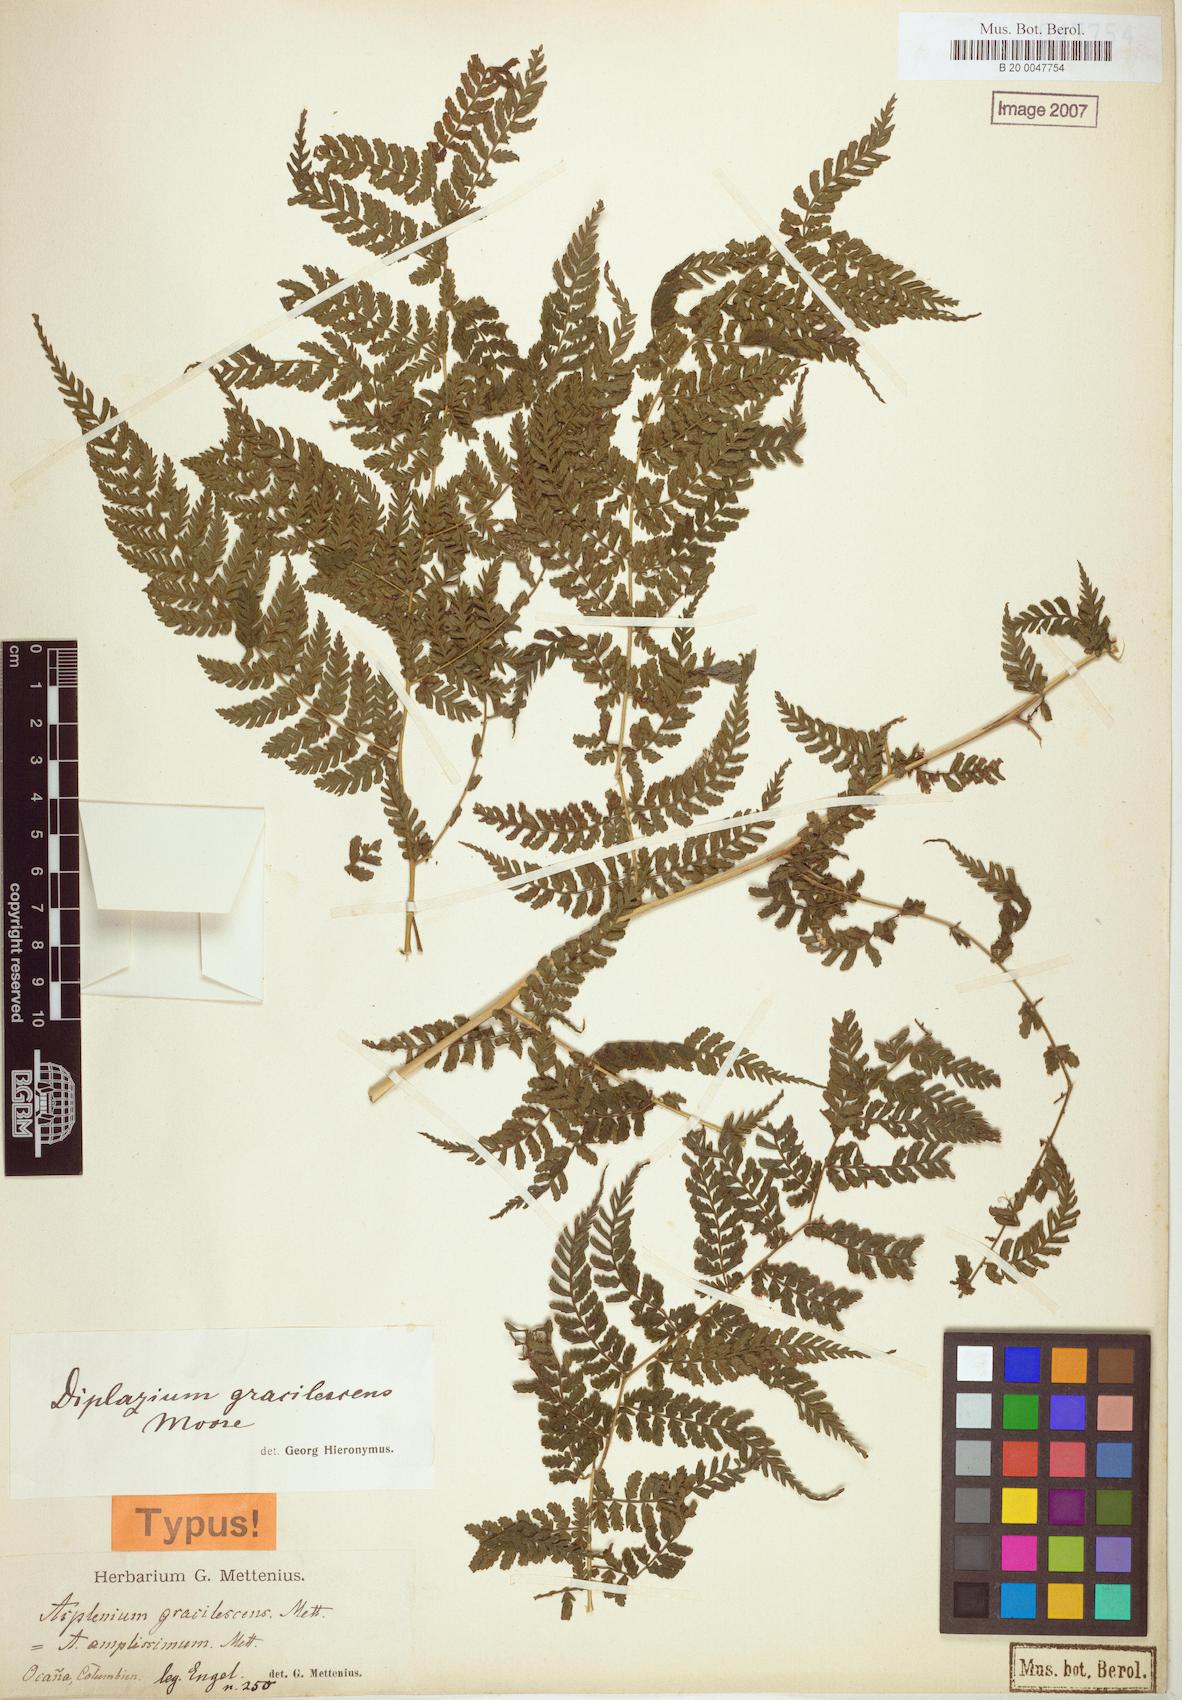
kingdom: Plantae
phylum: Tracheophyta
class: Polypodiopsida
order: Polypodiales
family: Athyriaceae
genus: Diplazium
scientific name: Diplazium gracilescens
